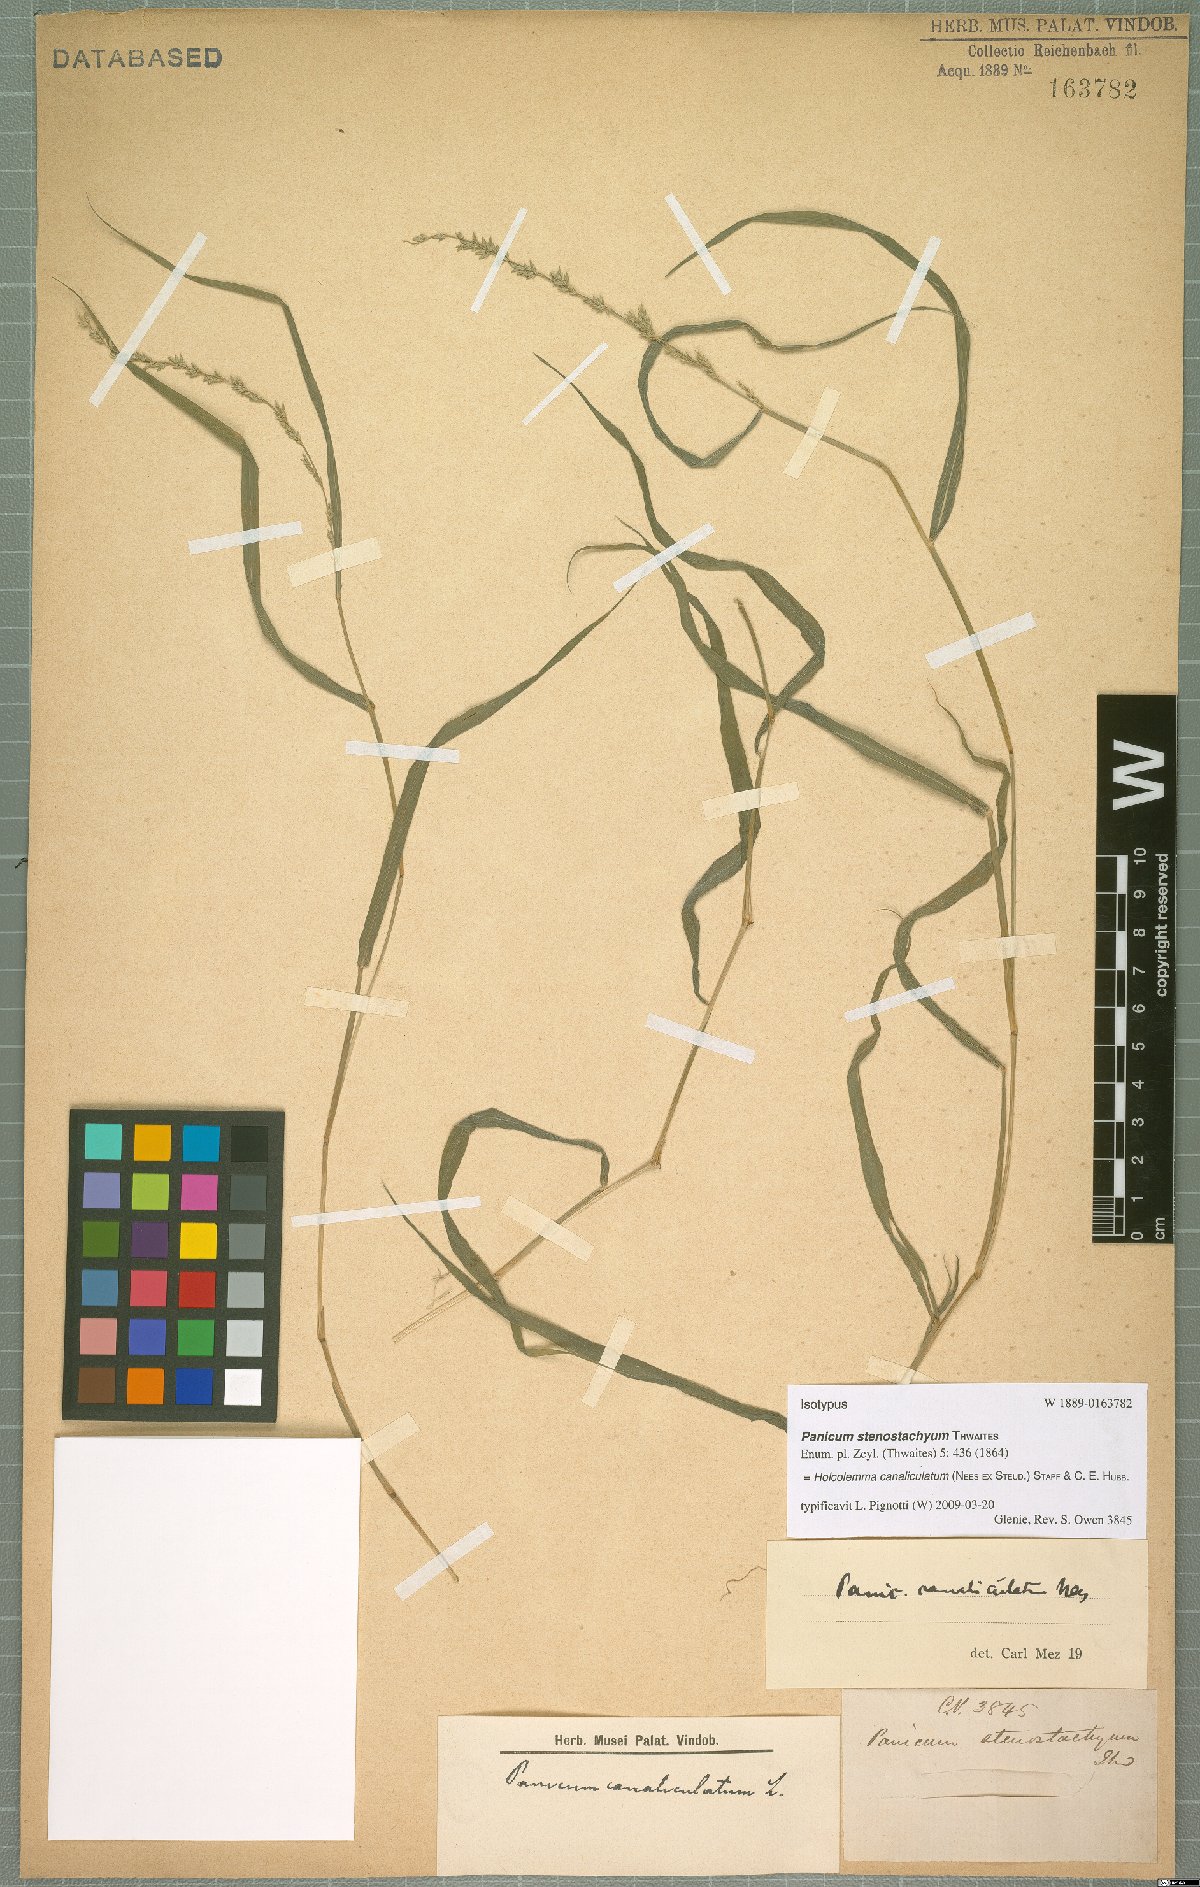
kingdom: Plantae
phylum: Tracheophyta
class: Liliopsida
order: Poales
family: Poaceae
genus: Holcolemma
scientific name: Holcolemma canaliculatum
